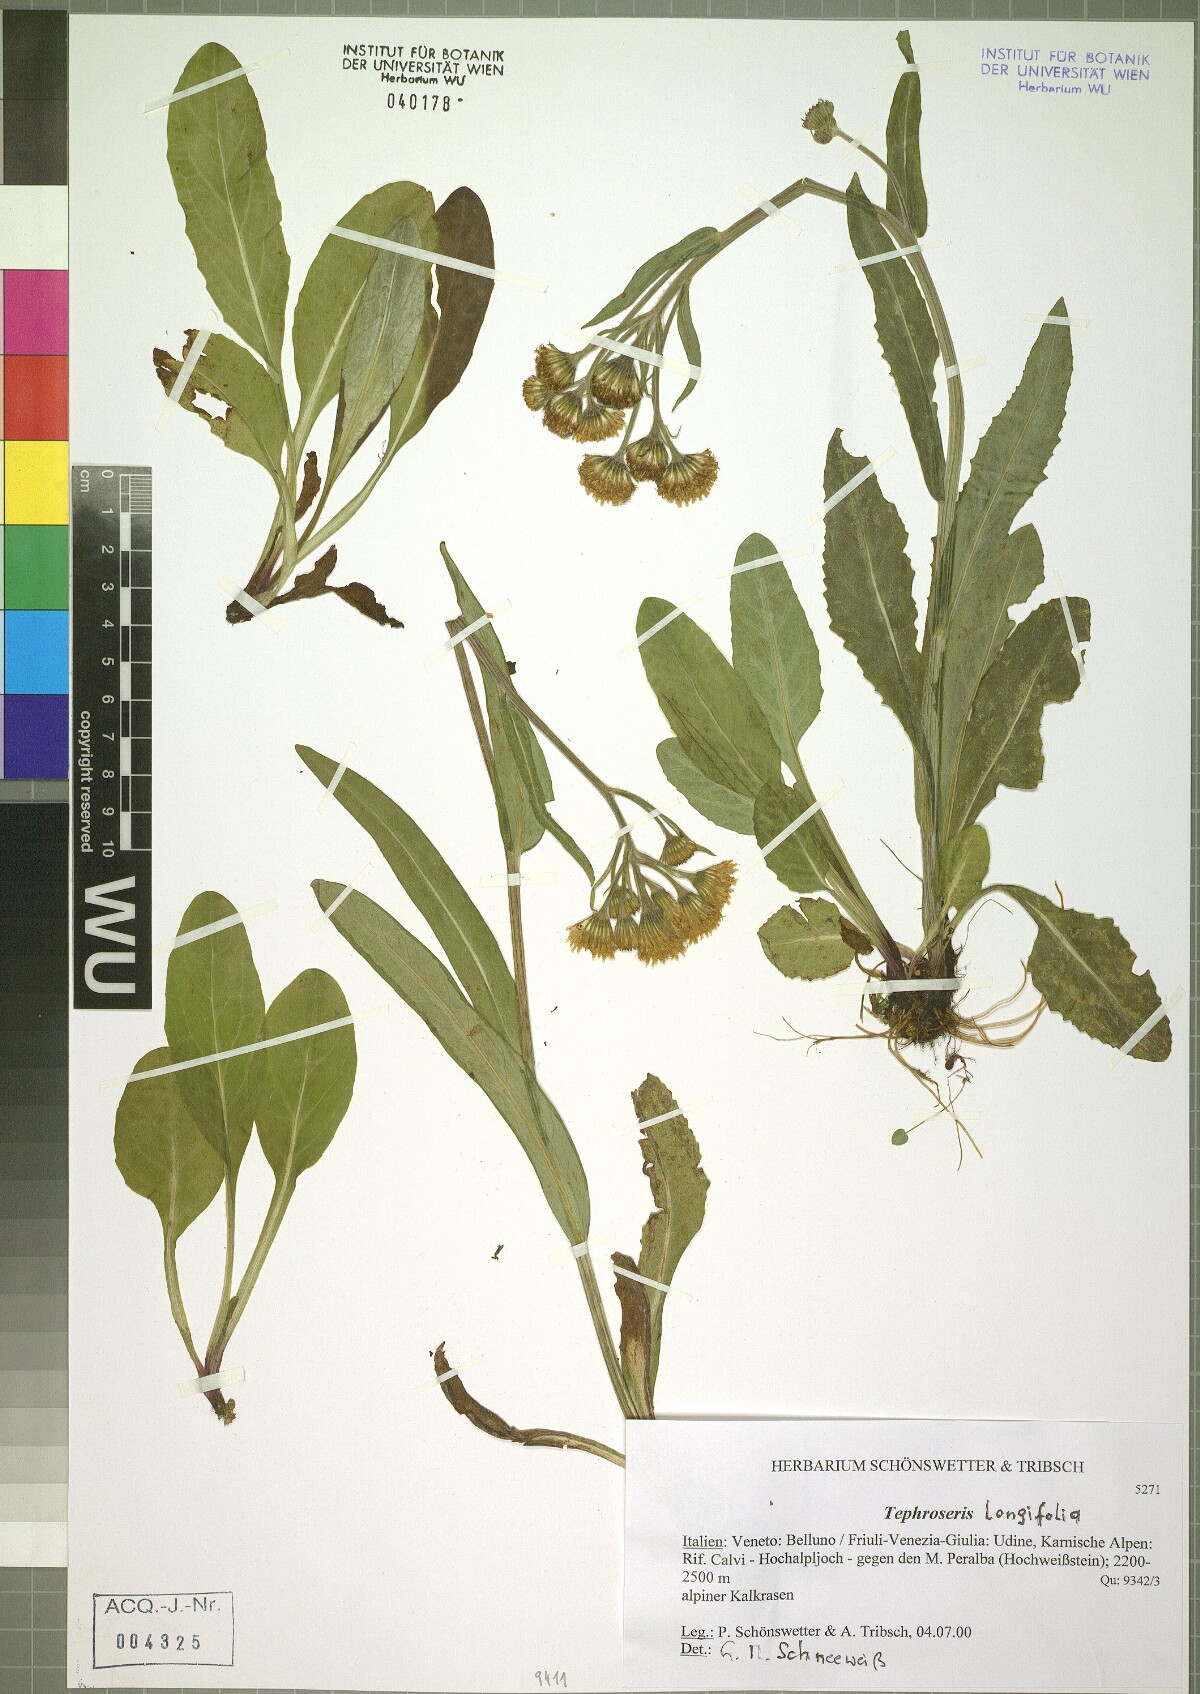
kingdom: Plantae
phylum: Tracheophyta
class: Magnoliopsida
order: Asterales
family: Asteraceae
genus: Tephroseris
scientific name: Tephroseris longifolia
